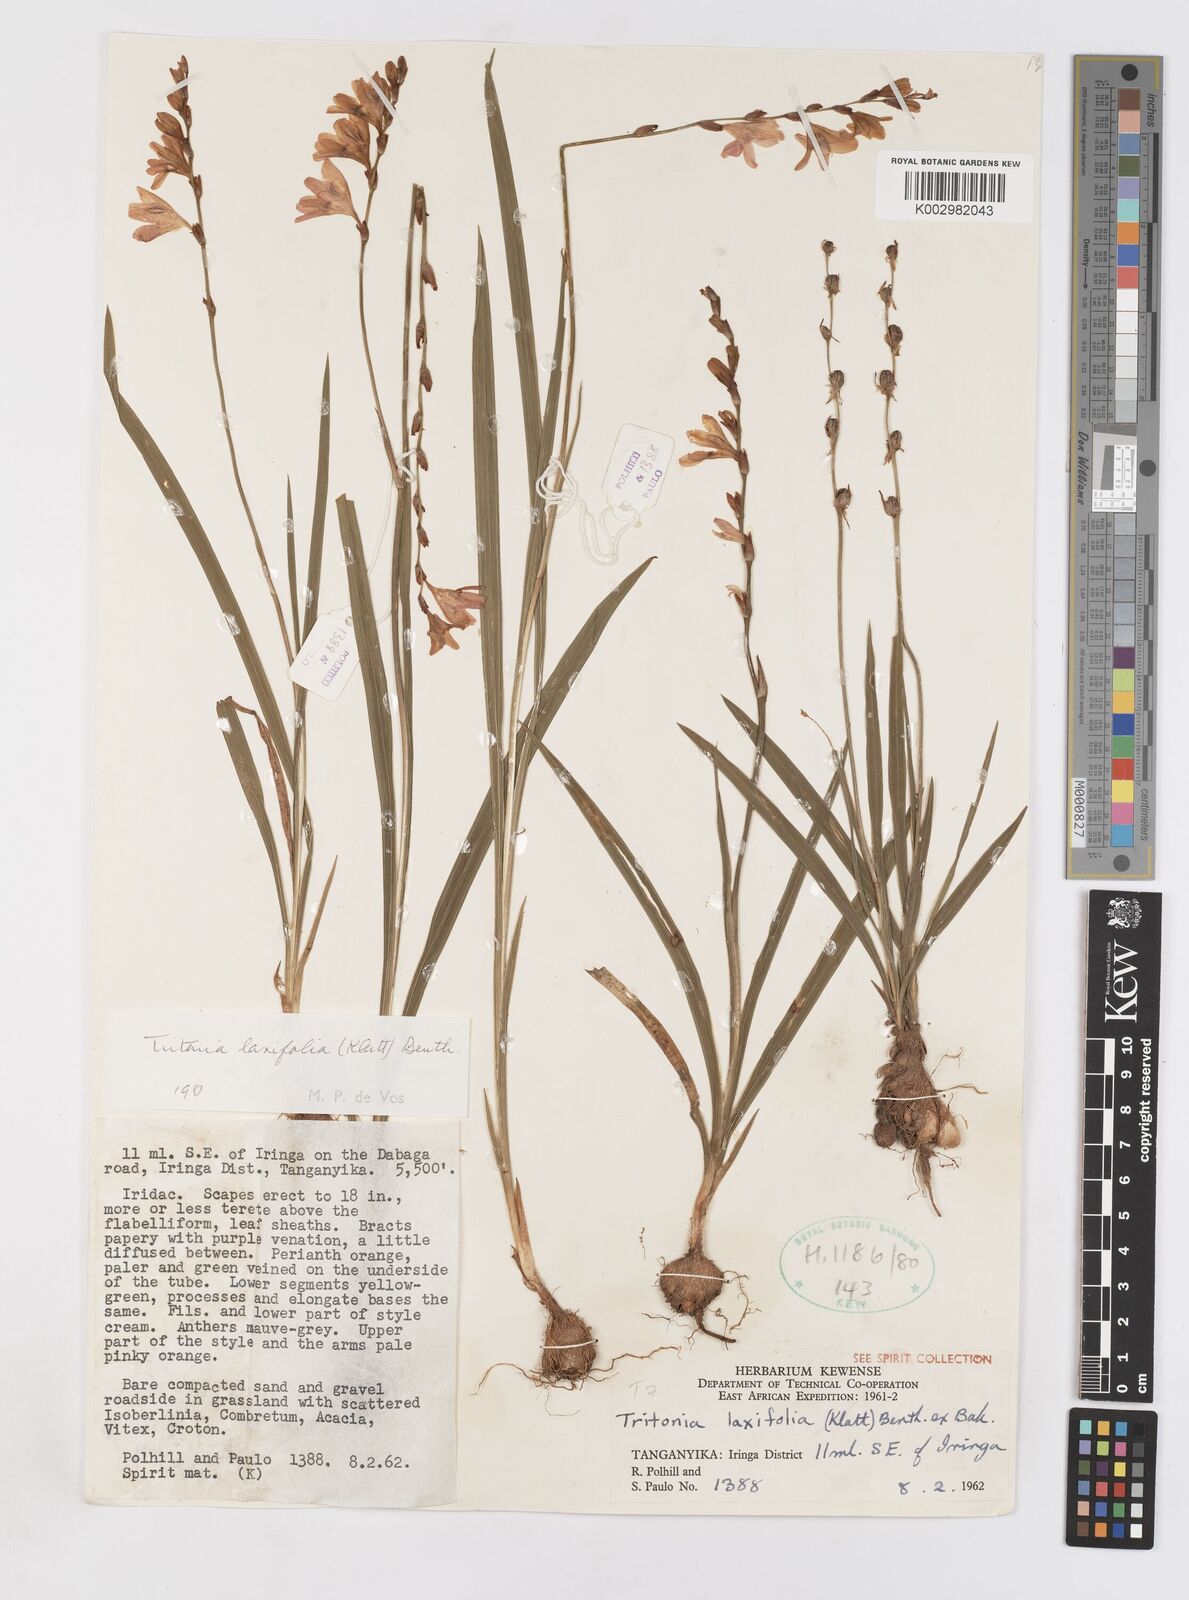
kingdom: Plantae
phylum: Tracheophyta
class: Liliopsida
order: Asparagales
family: Iridaceae
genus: Tritonia
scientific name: Tritonia laxifolia
